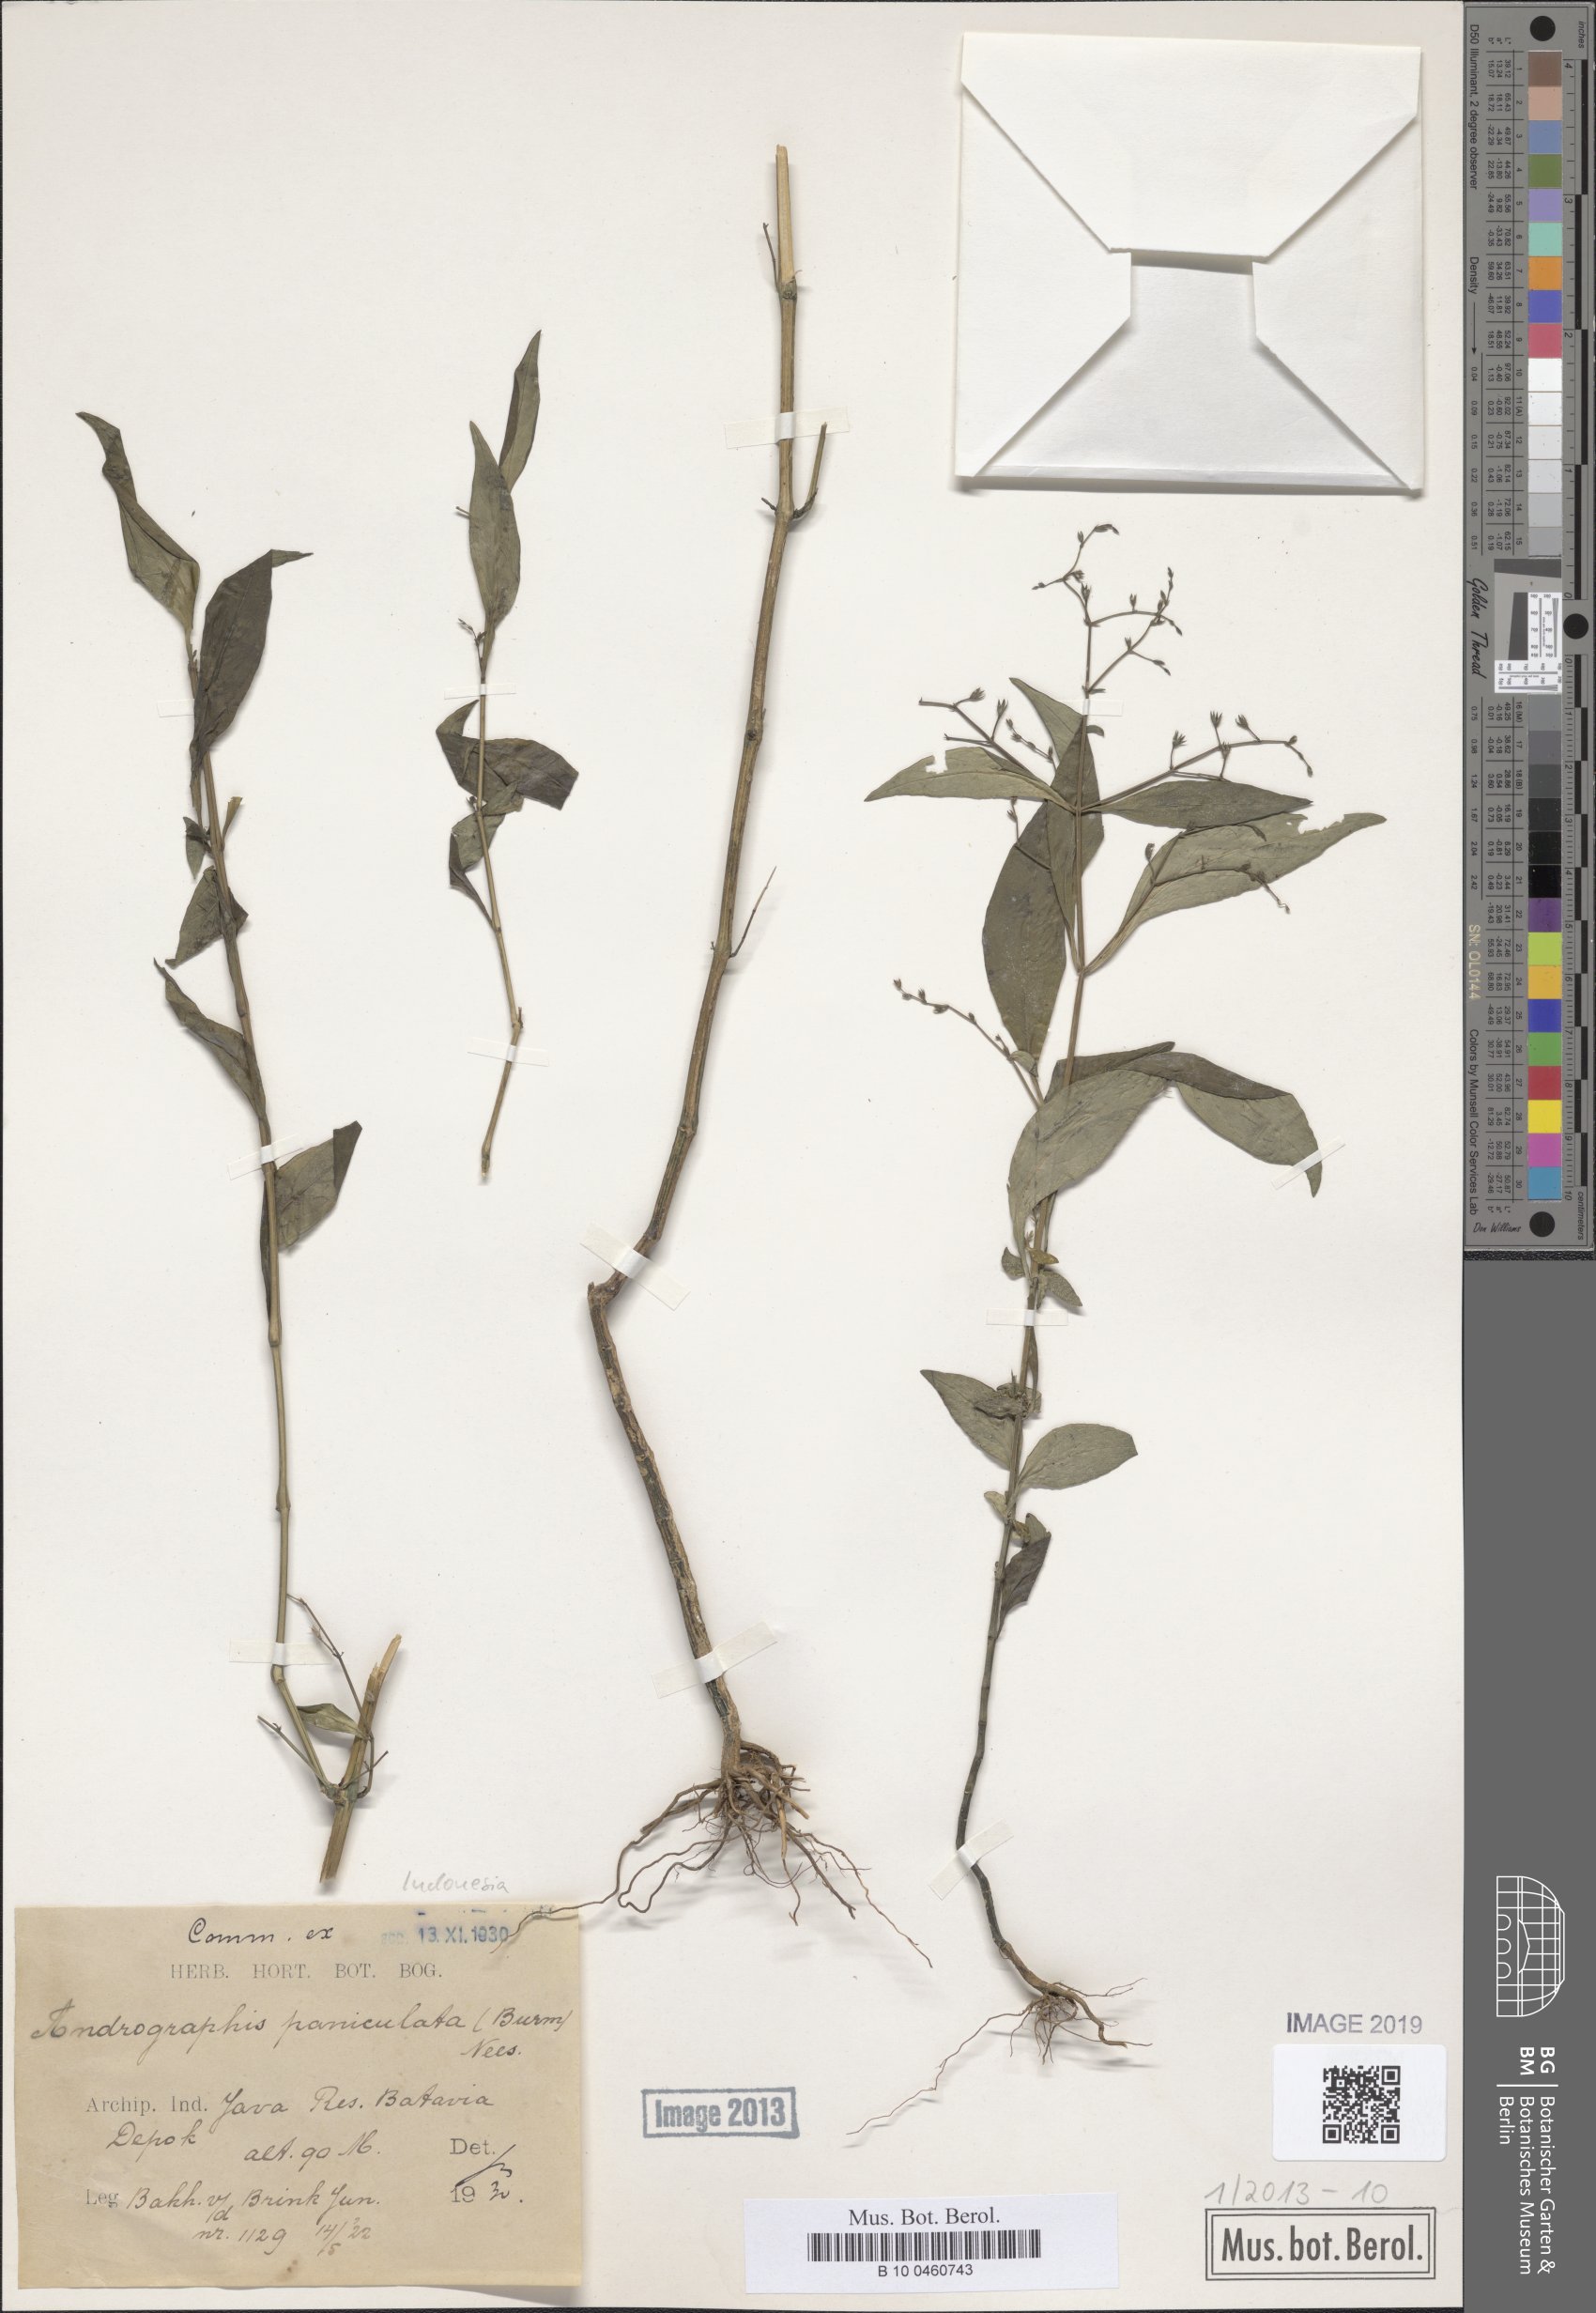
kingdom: Plantae
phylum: Tracheophyta
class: Magnoliopsida
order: Lamiales
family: Acanthaceae
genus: Andrographis
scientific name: Andrographis paniculata
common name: Green chireta
